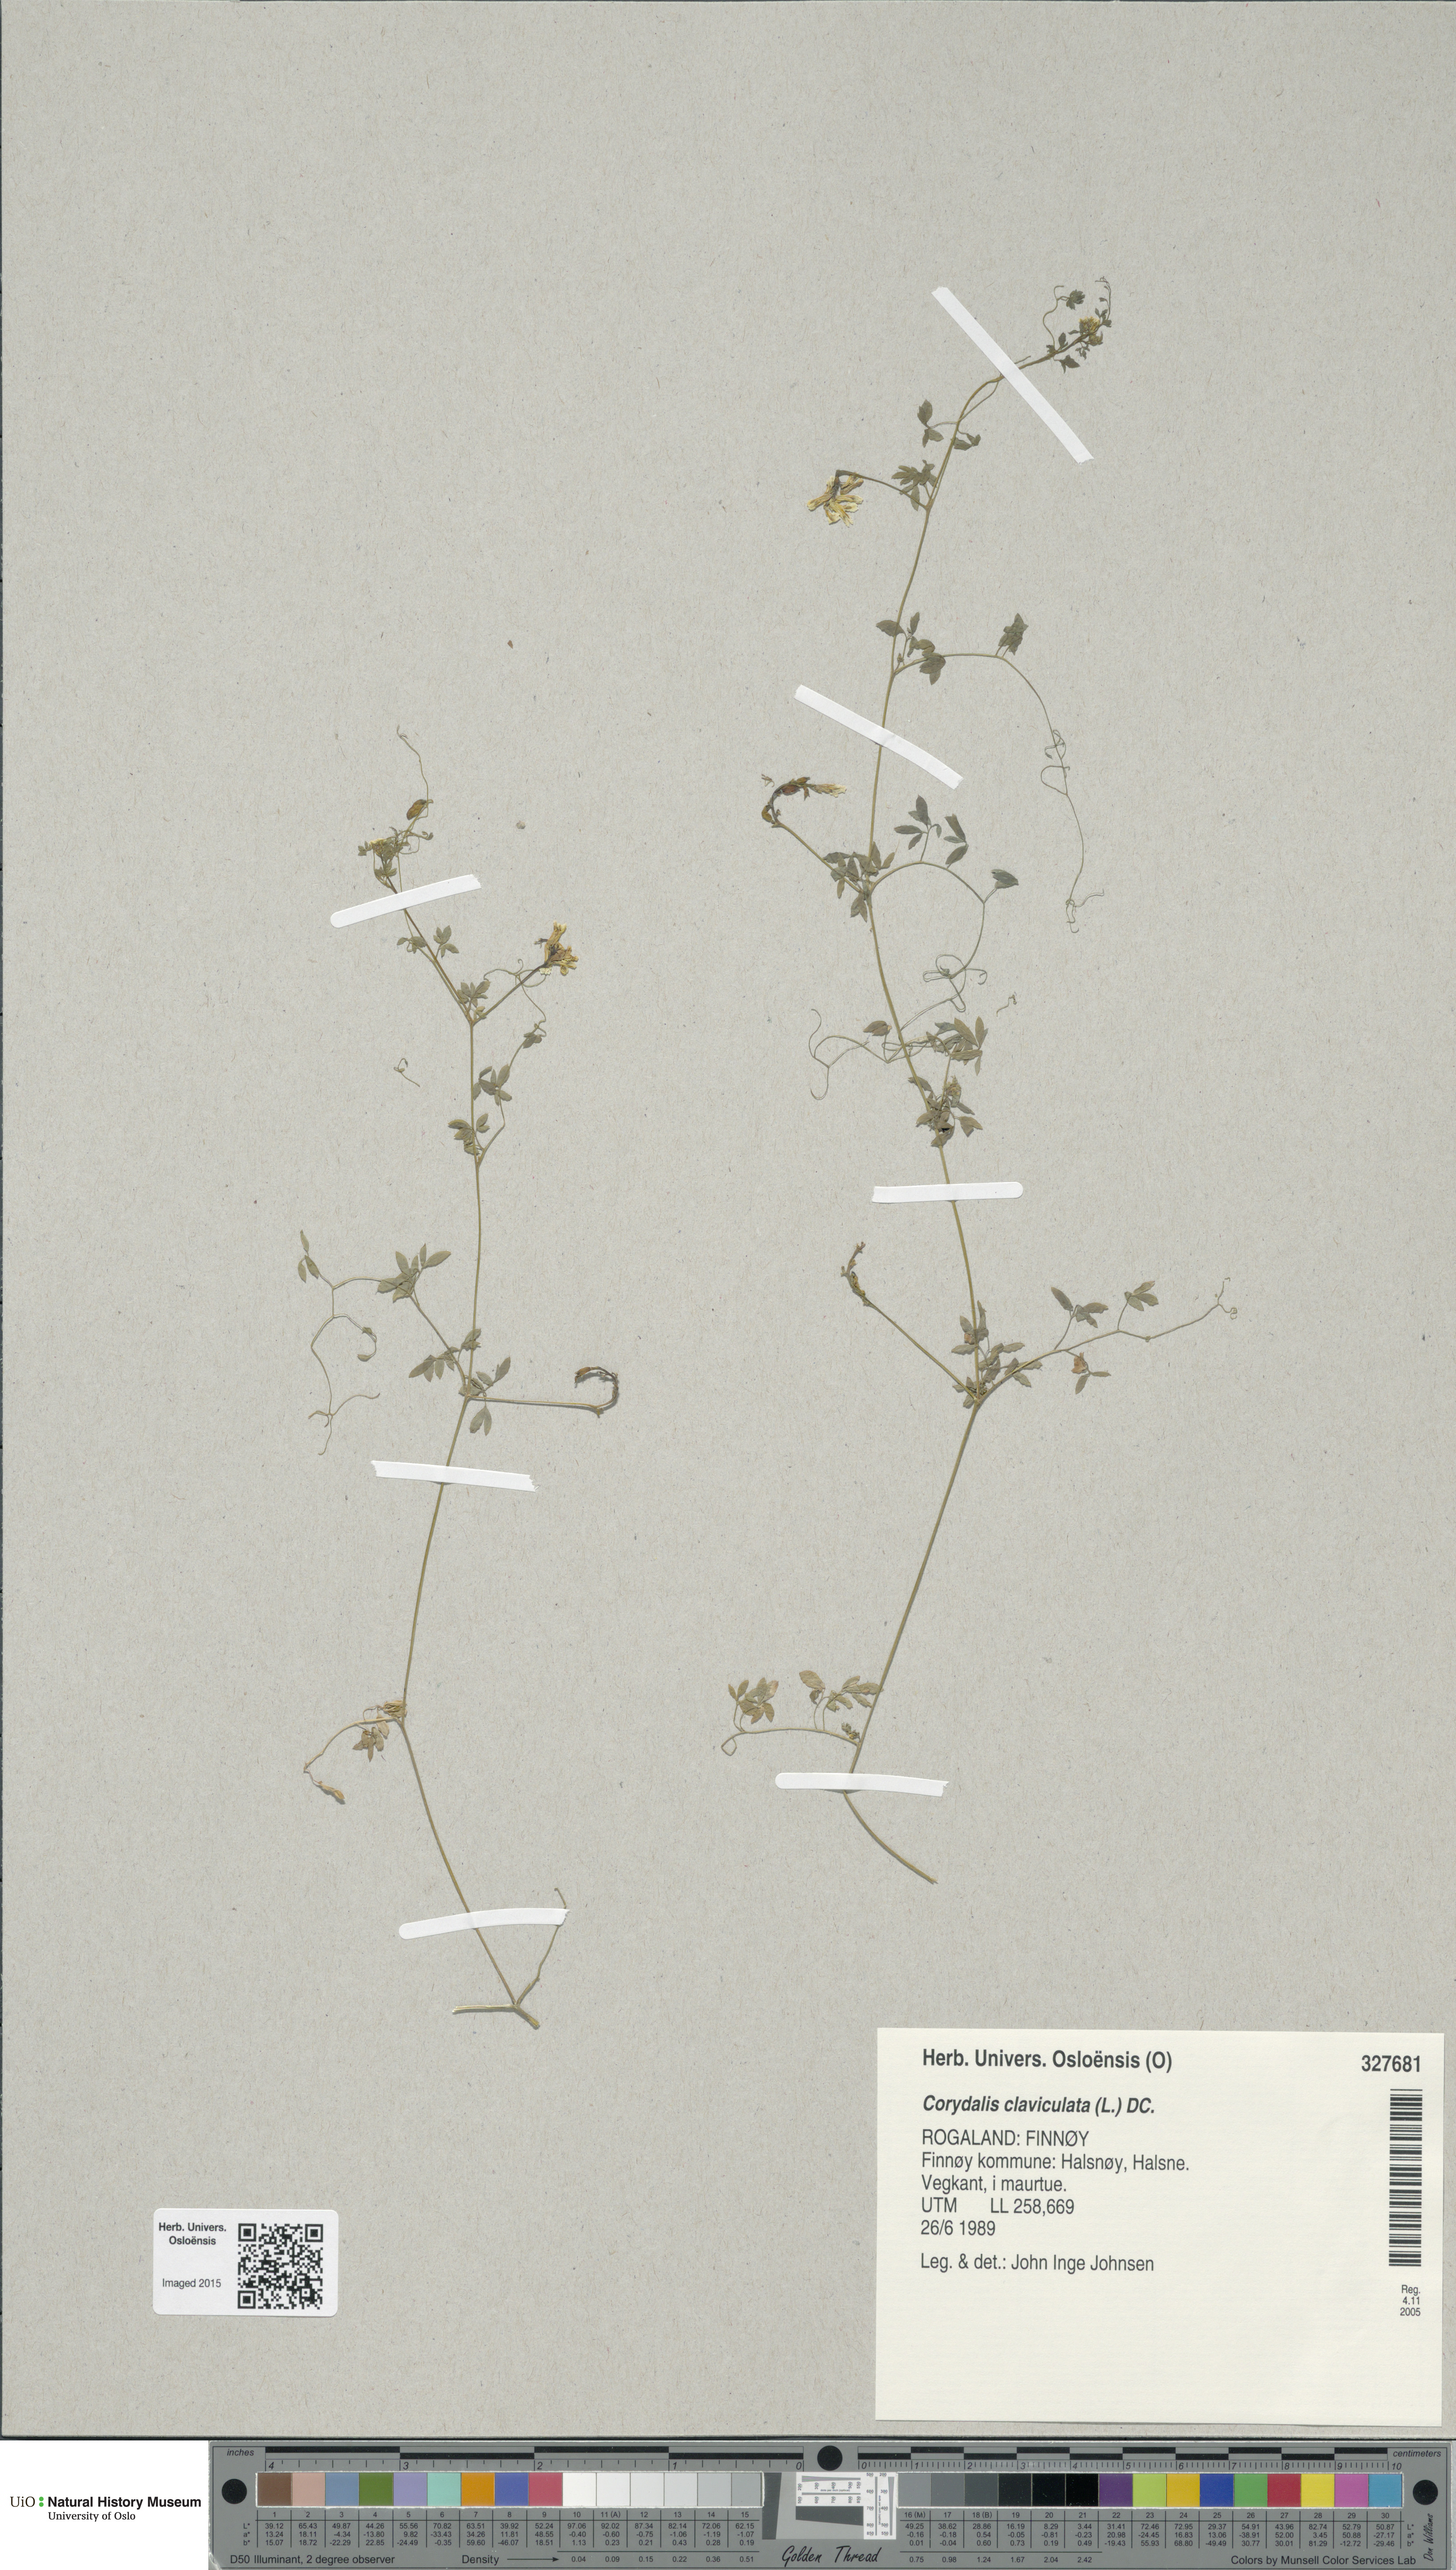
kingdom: Plantae
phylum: Tracheophyta
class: Magnoliopsida
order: Ranunculales
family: Papaveraceae
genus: Ceratocapnos
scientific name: Ceratocapnos claviculata
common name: Climbing corydalis
